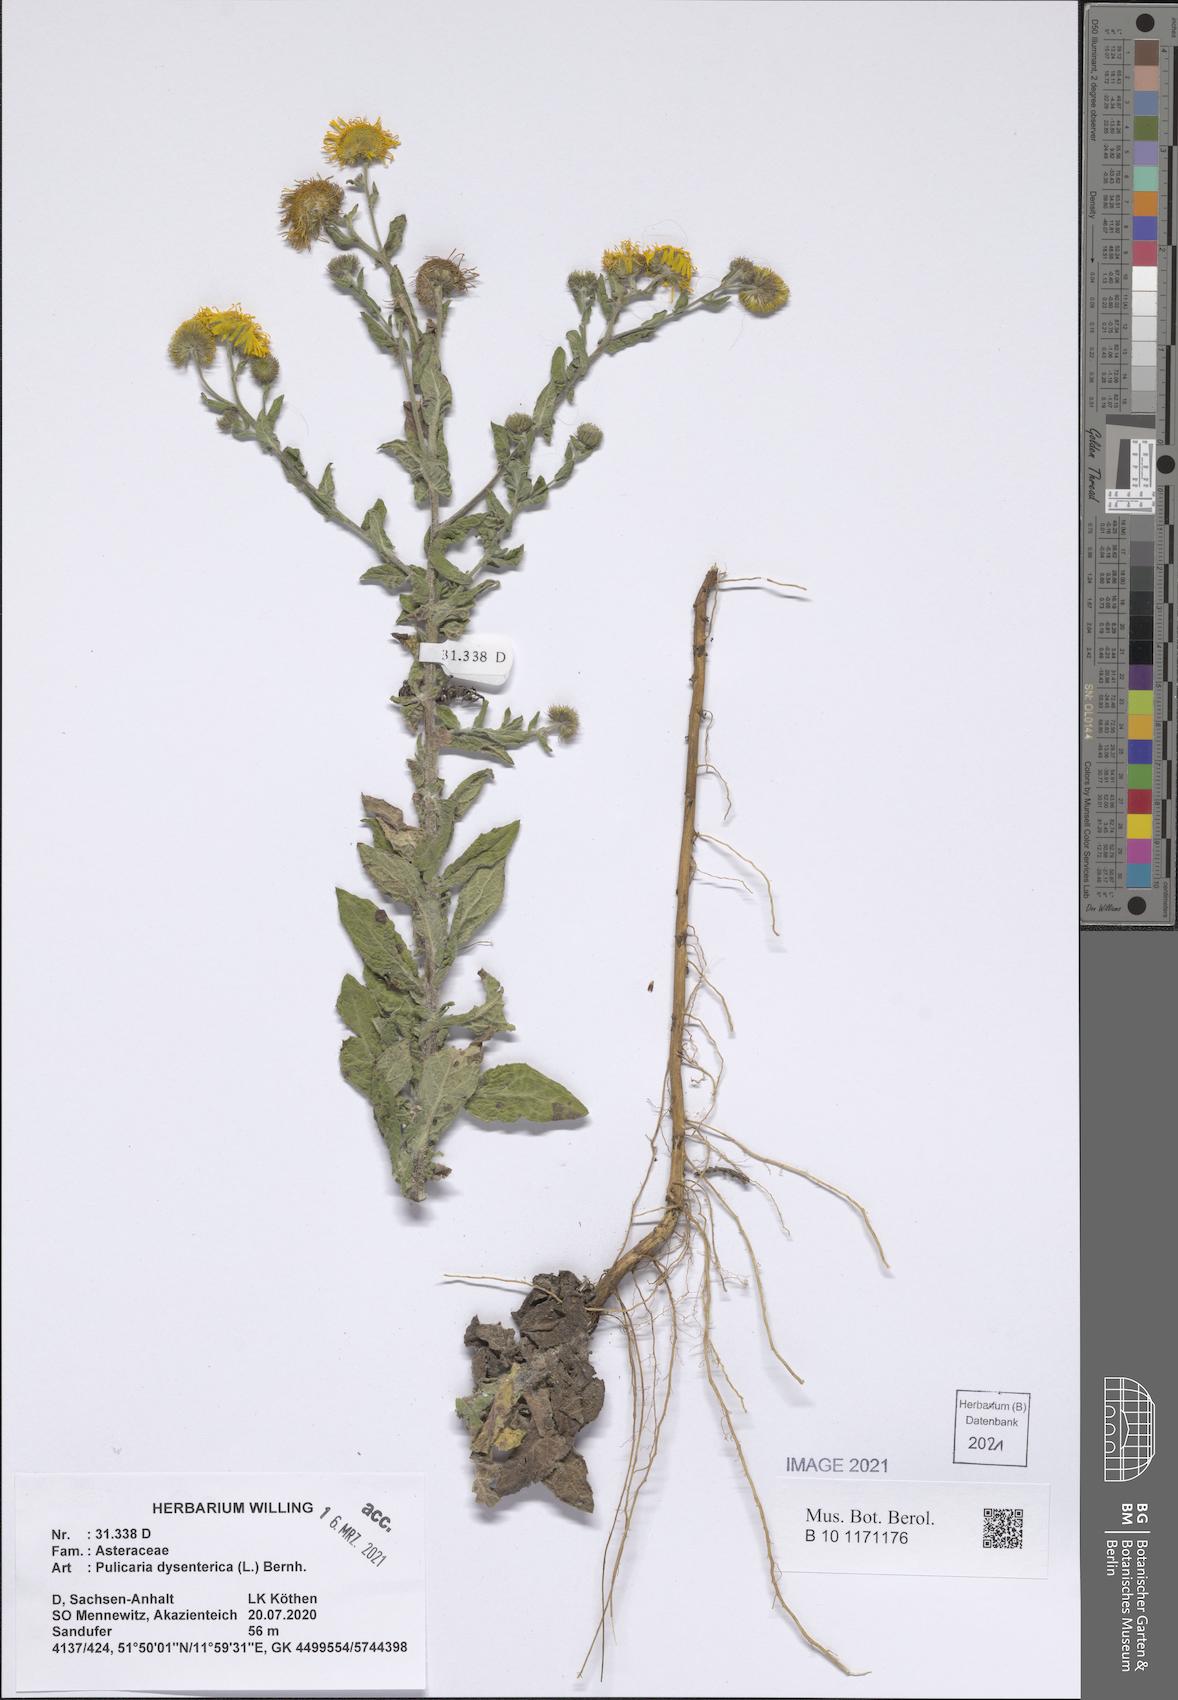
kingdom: Plantae
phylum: Tracheophyta
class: Magnoliopsida
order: Asterales
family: Asteraceae
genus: Pulicaria
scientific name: Pulicaria dysenterica
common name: Common fleabane
